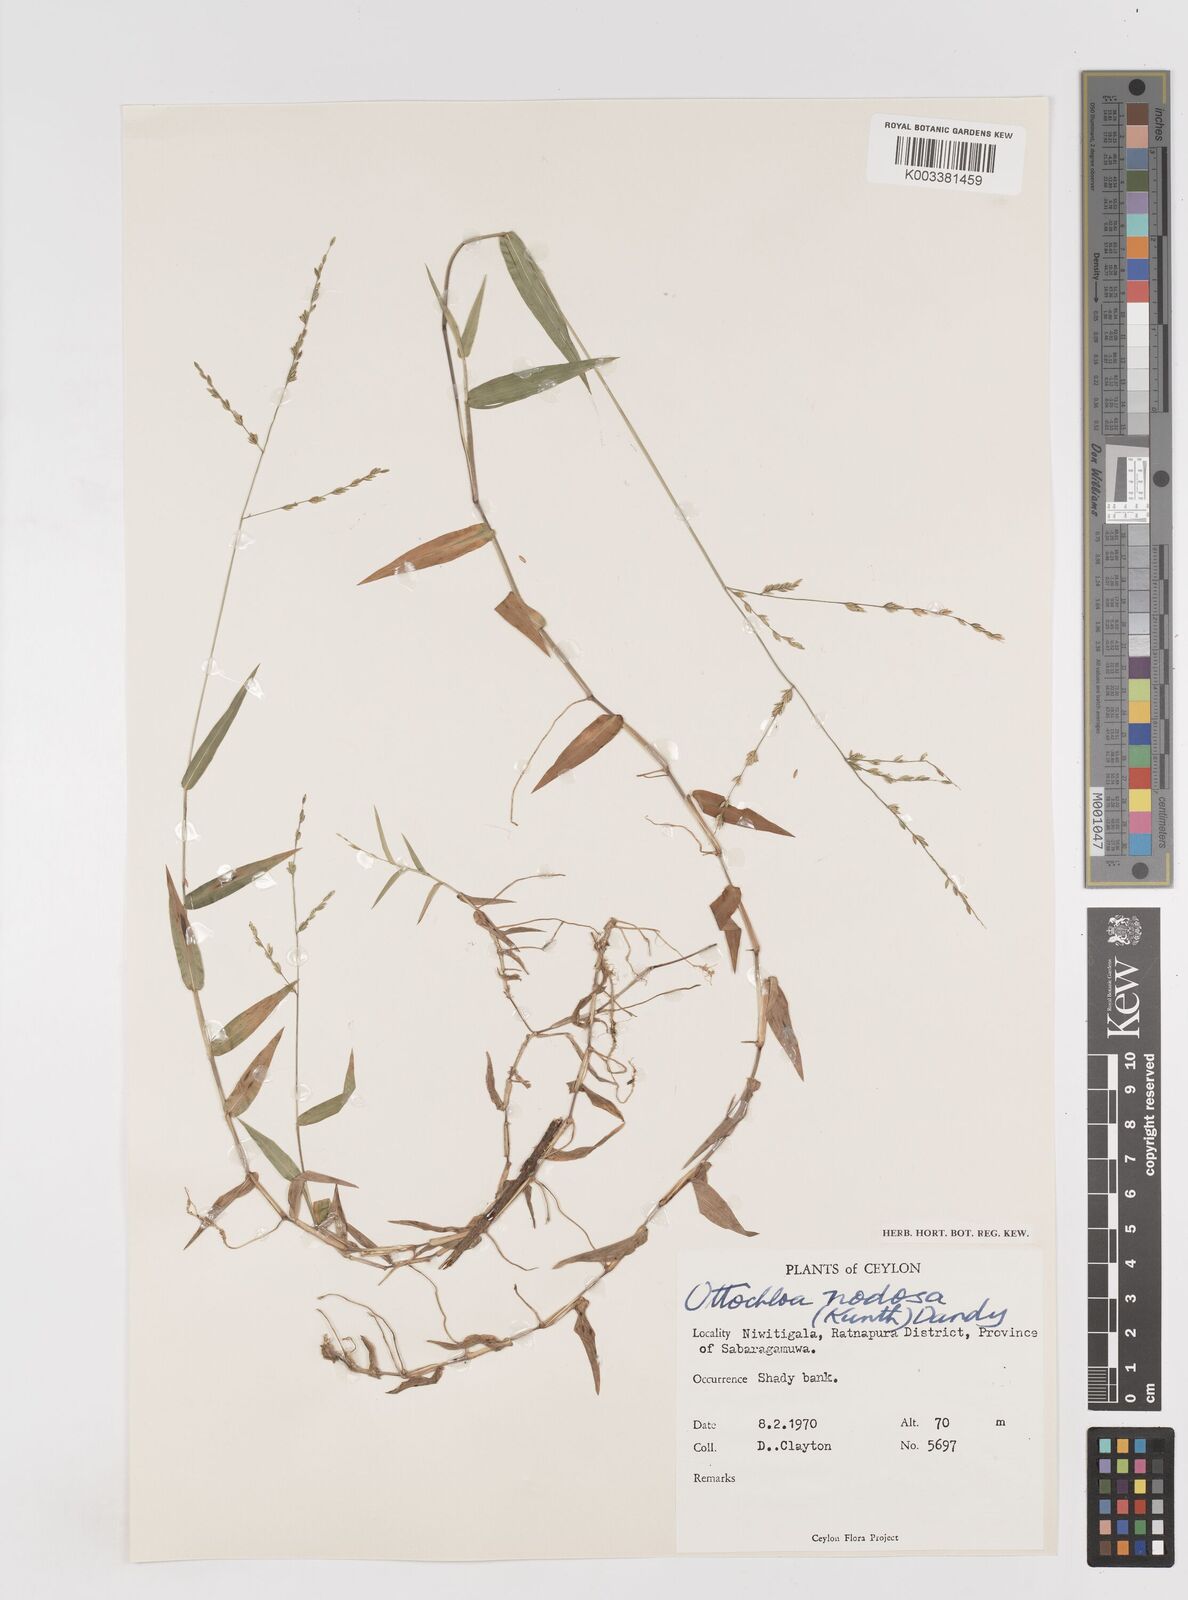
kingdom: Plantae
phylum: Tracheophyta
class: Liliopsida
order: Poales
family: Poaceae
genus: Ottochloa
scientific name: Ottochloa nodosa
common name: Slender-panic grass
